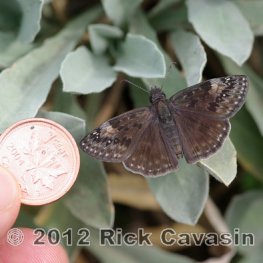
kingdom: Animalia
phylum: Arthropoda
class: Insecta
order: Lepidoptera
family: Hesperiidae
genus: Gesta
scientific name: Gesta
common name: Wild Indigo Duskywing
